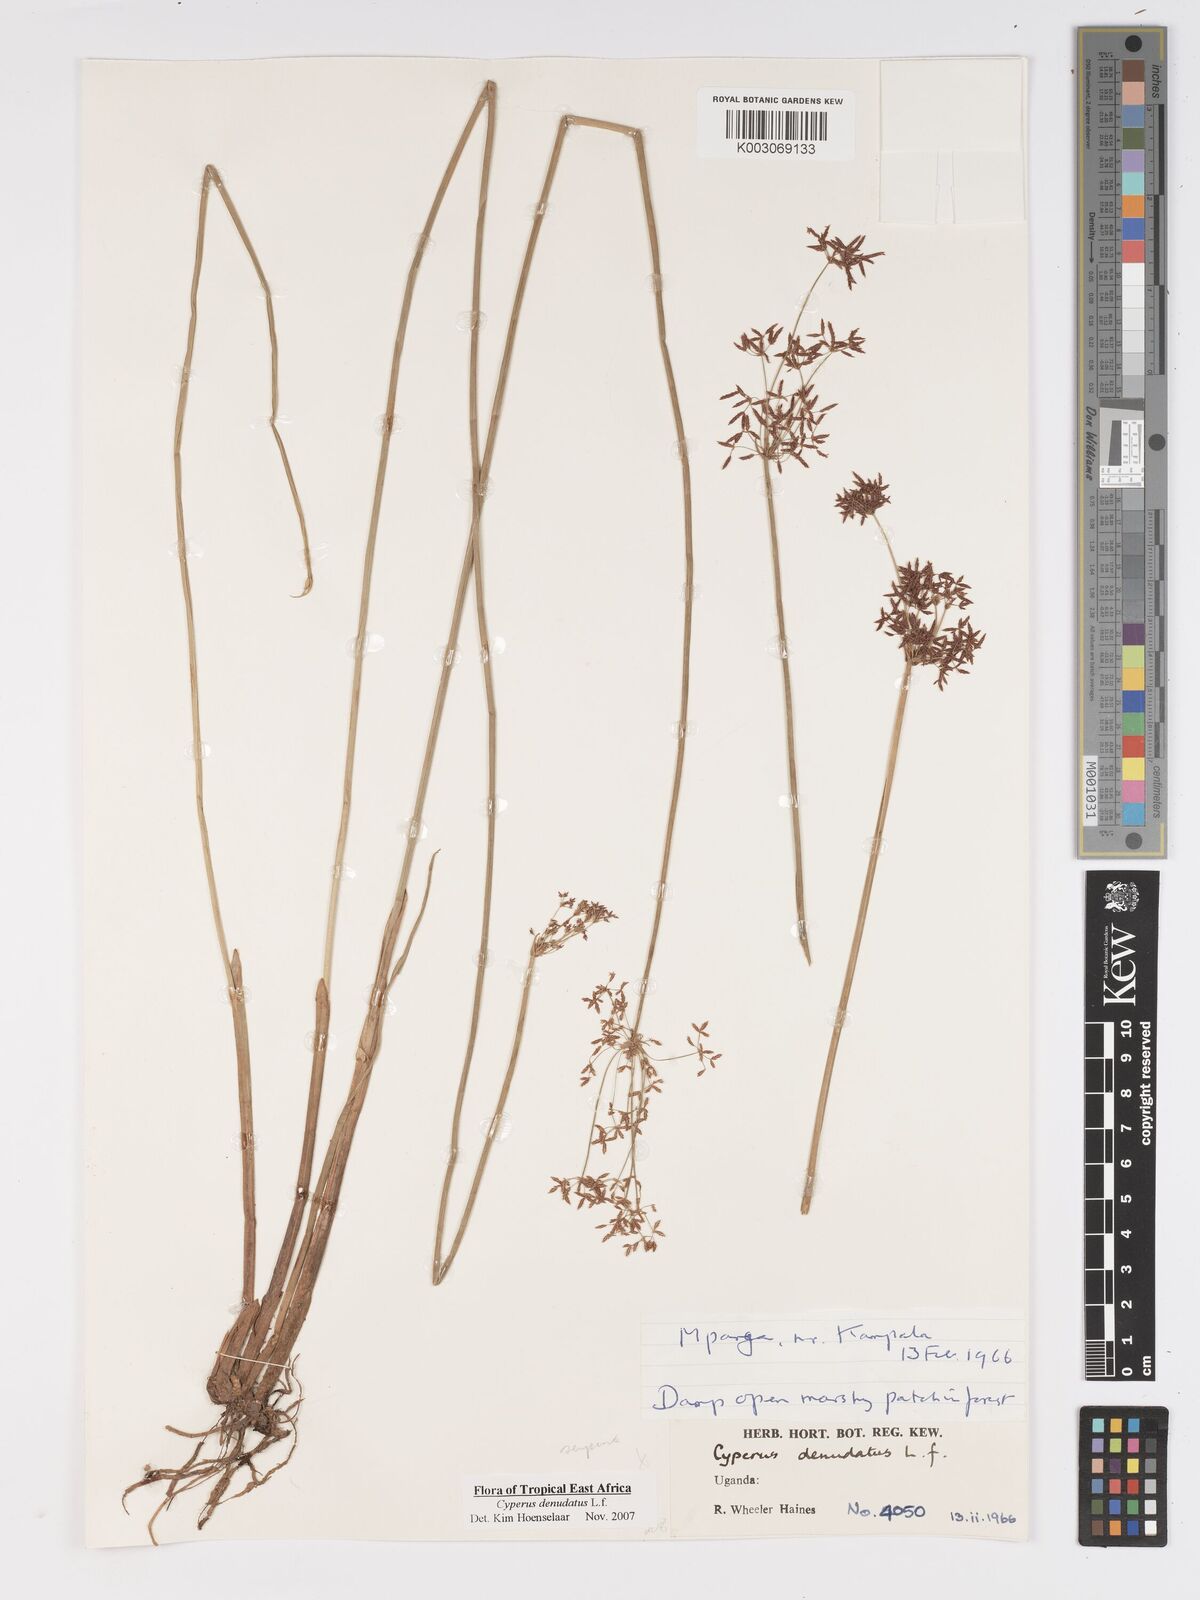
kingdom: Plantae
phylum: Tracheophyta
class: Liliopsida
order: Poales
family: Cyperaceae
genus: Cyperus
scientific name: Cyperus platycaulis
